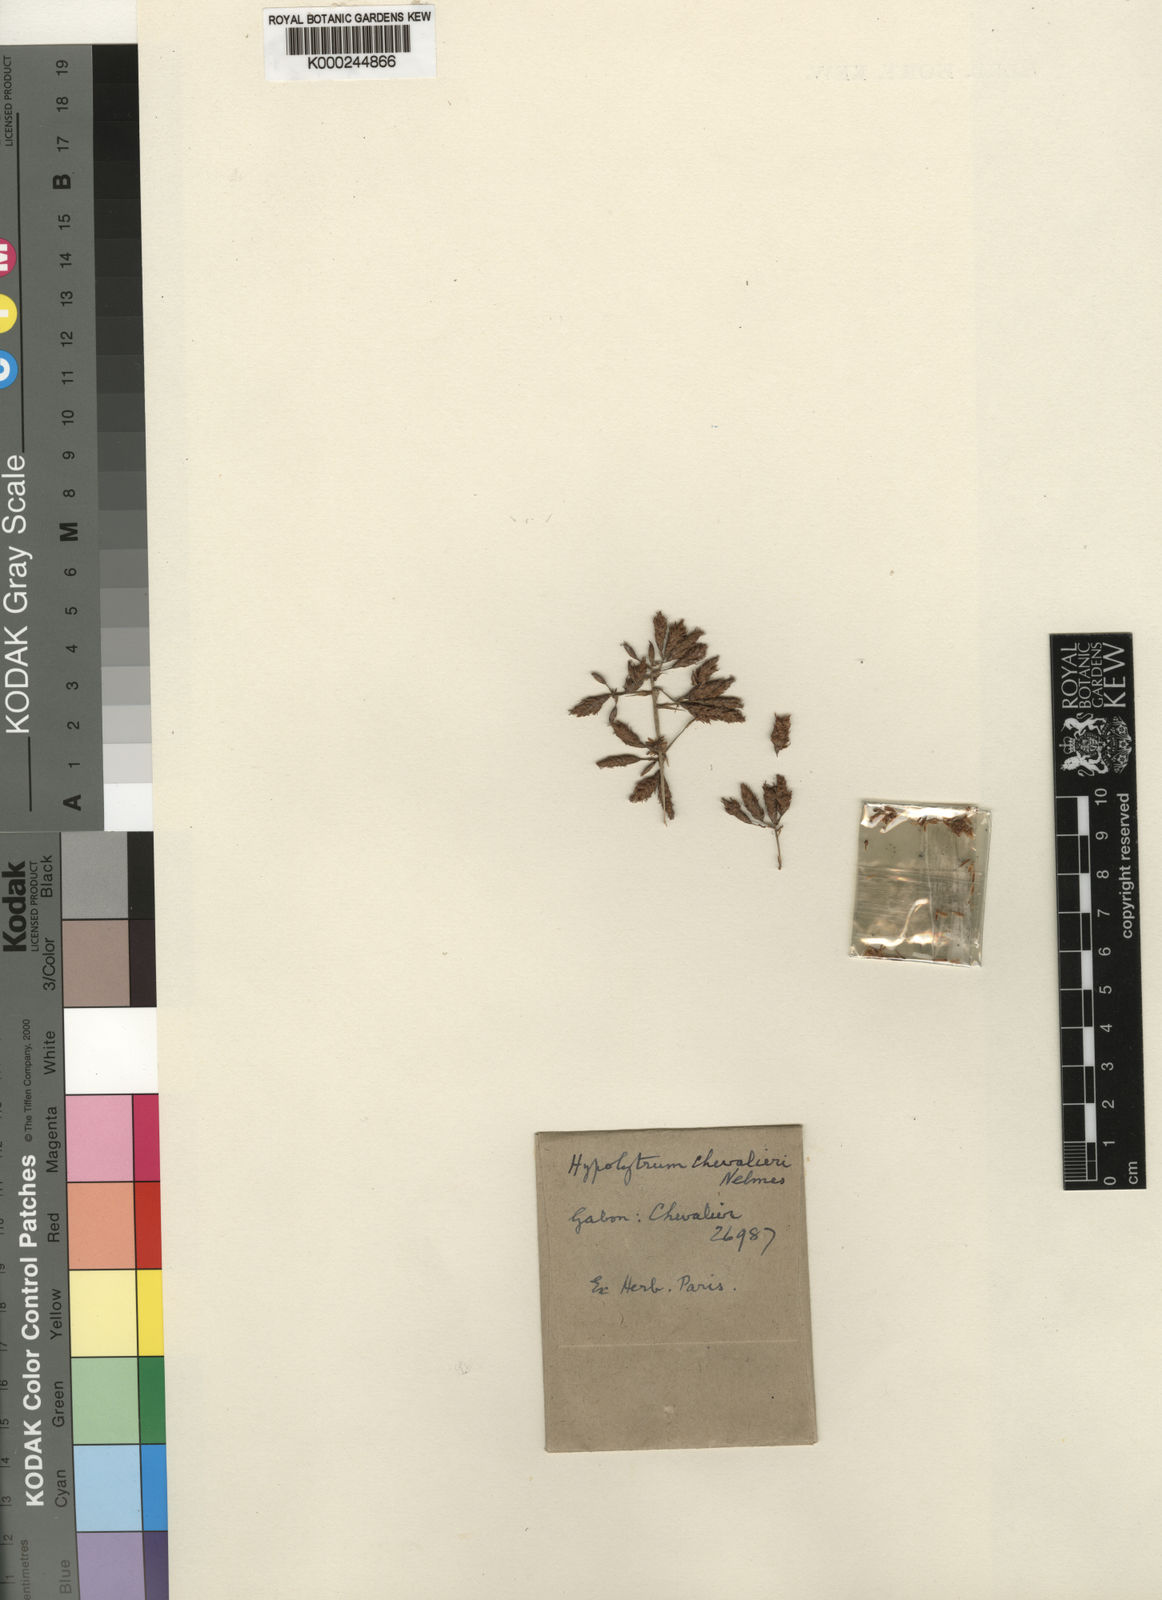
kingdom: Plantae
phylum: Tracheophyta
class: Liliopsida
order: Poales
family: Cyperaceae
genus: Hypolytrum
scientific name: Hypolytrum chevalieri
